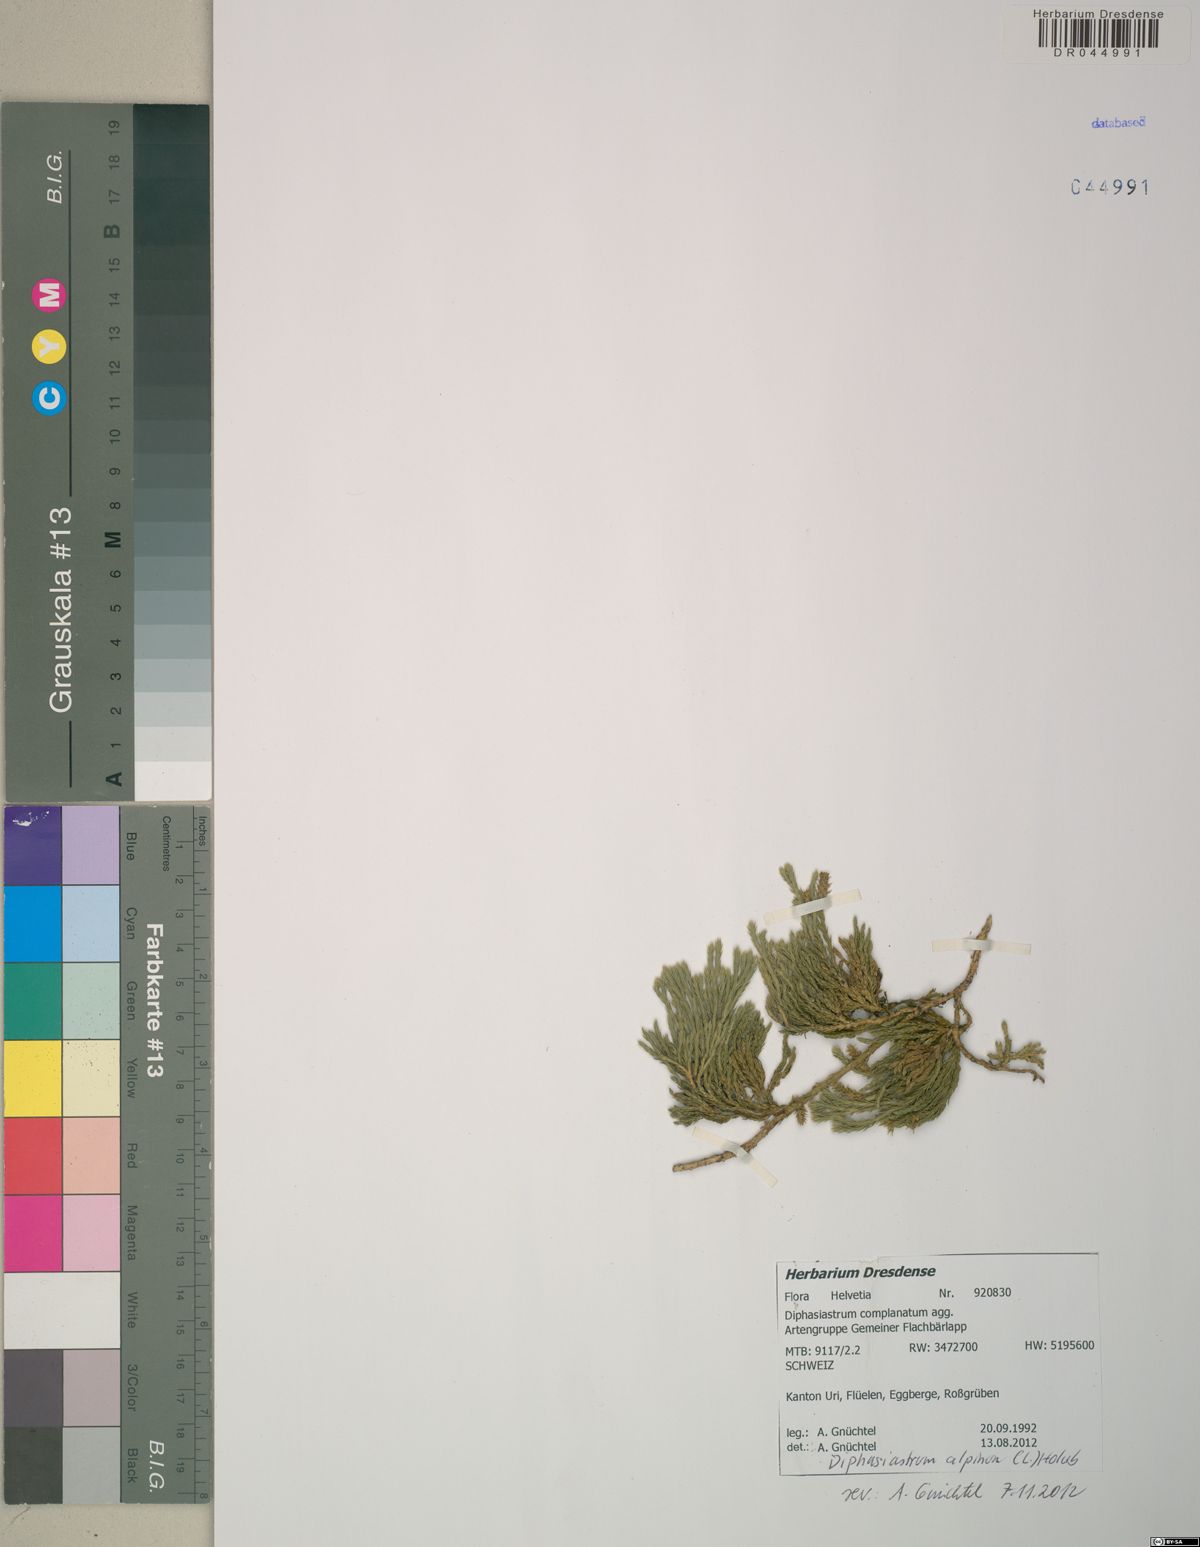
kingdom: Plantae
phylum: Tracheophyta
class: Lycopodiopsida
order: Lycopodiales
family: Lycopodiaceae
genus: Diphasiastrum
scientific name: Diphasiastrum alpinum
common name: Alpine clubmoss
